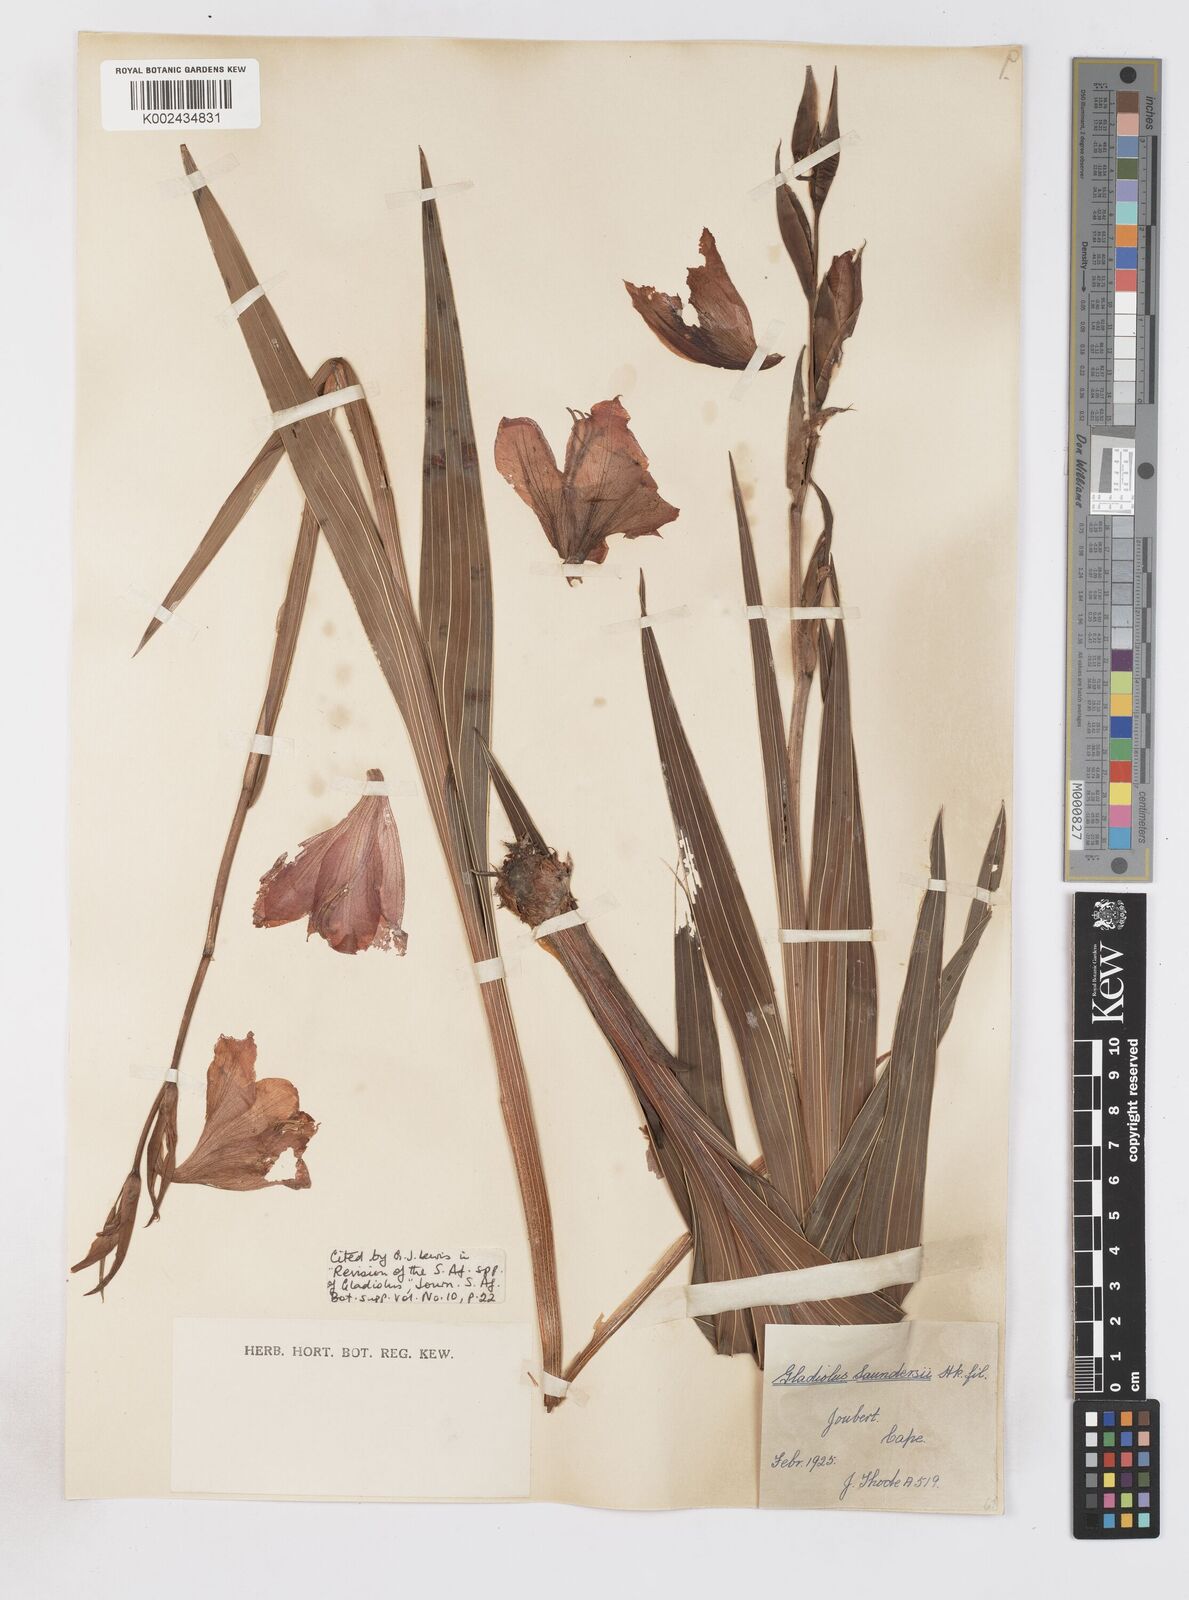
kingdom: Plantae
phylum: Tracheophyta
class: Liliopsida
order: Asparagales
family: Iridaceae
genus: Gladiolus
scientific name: Gladiolus saundersii
